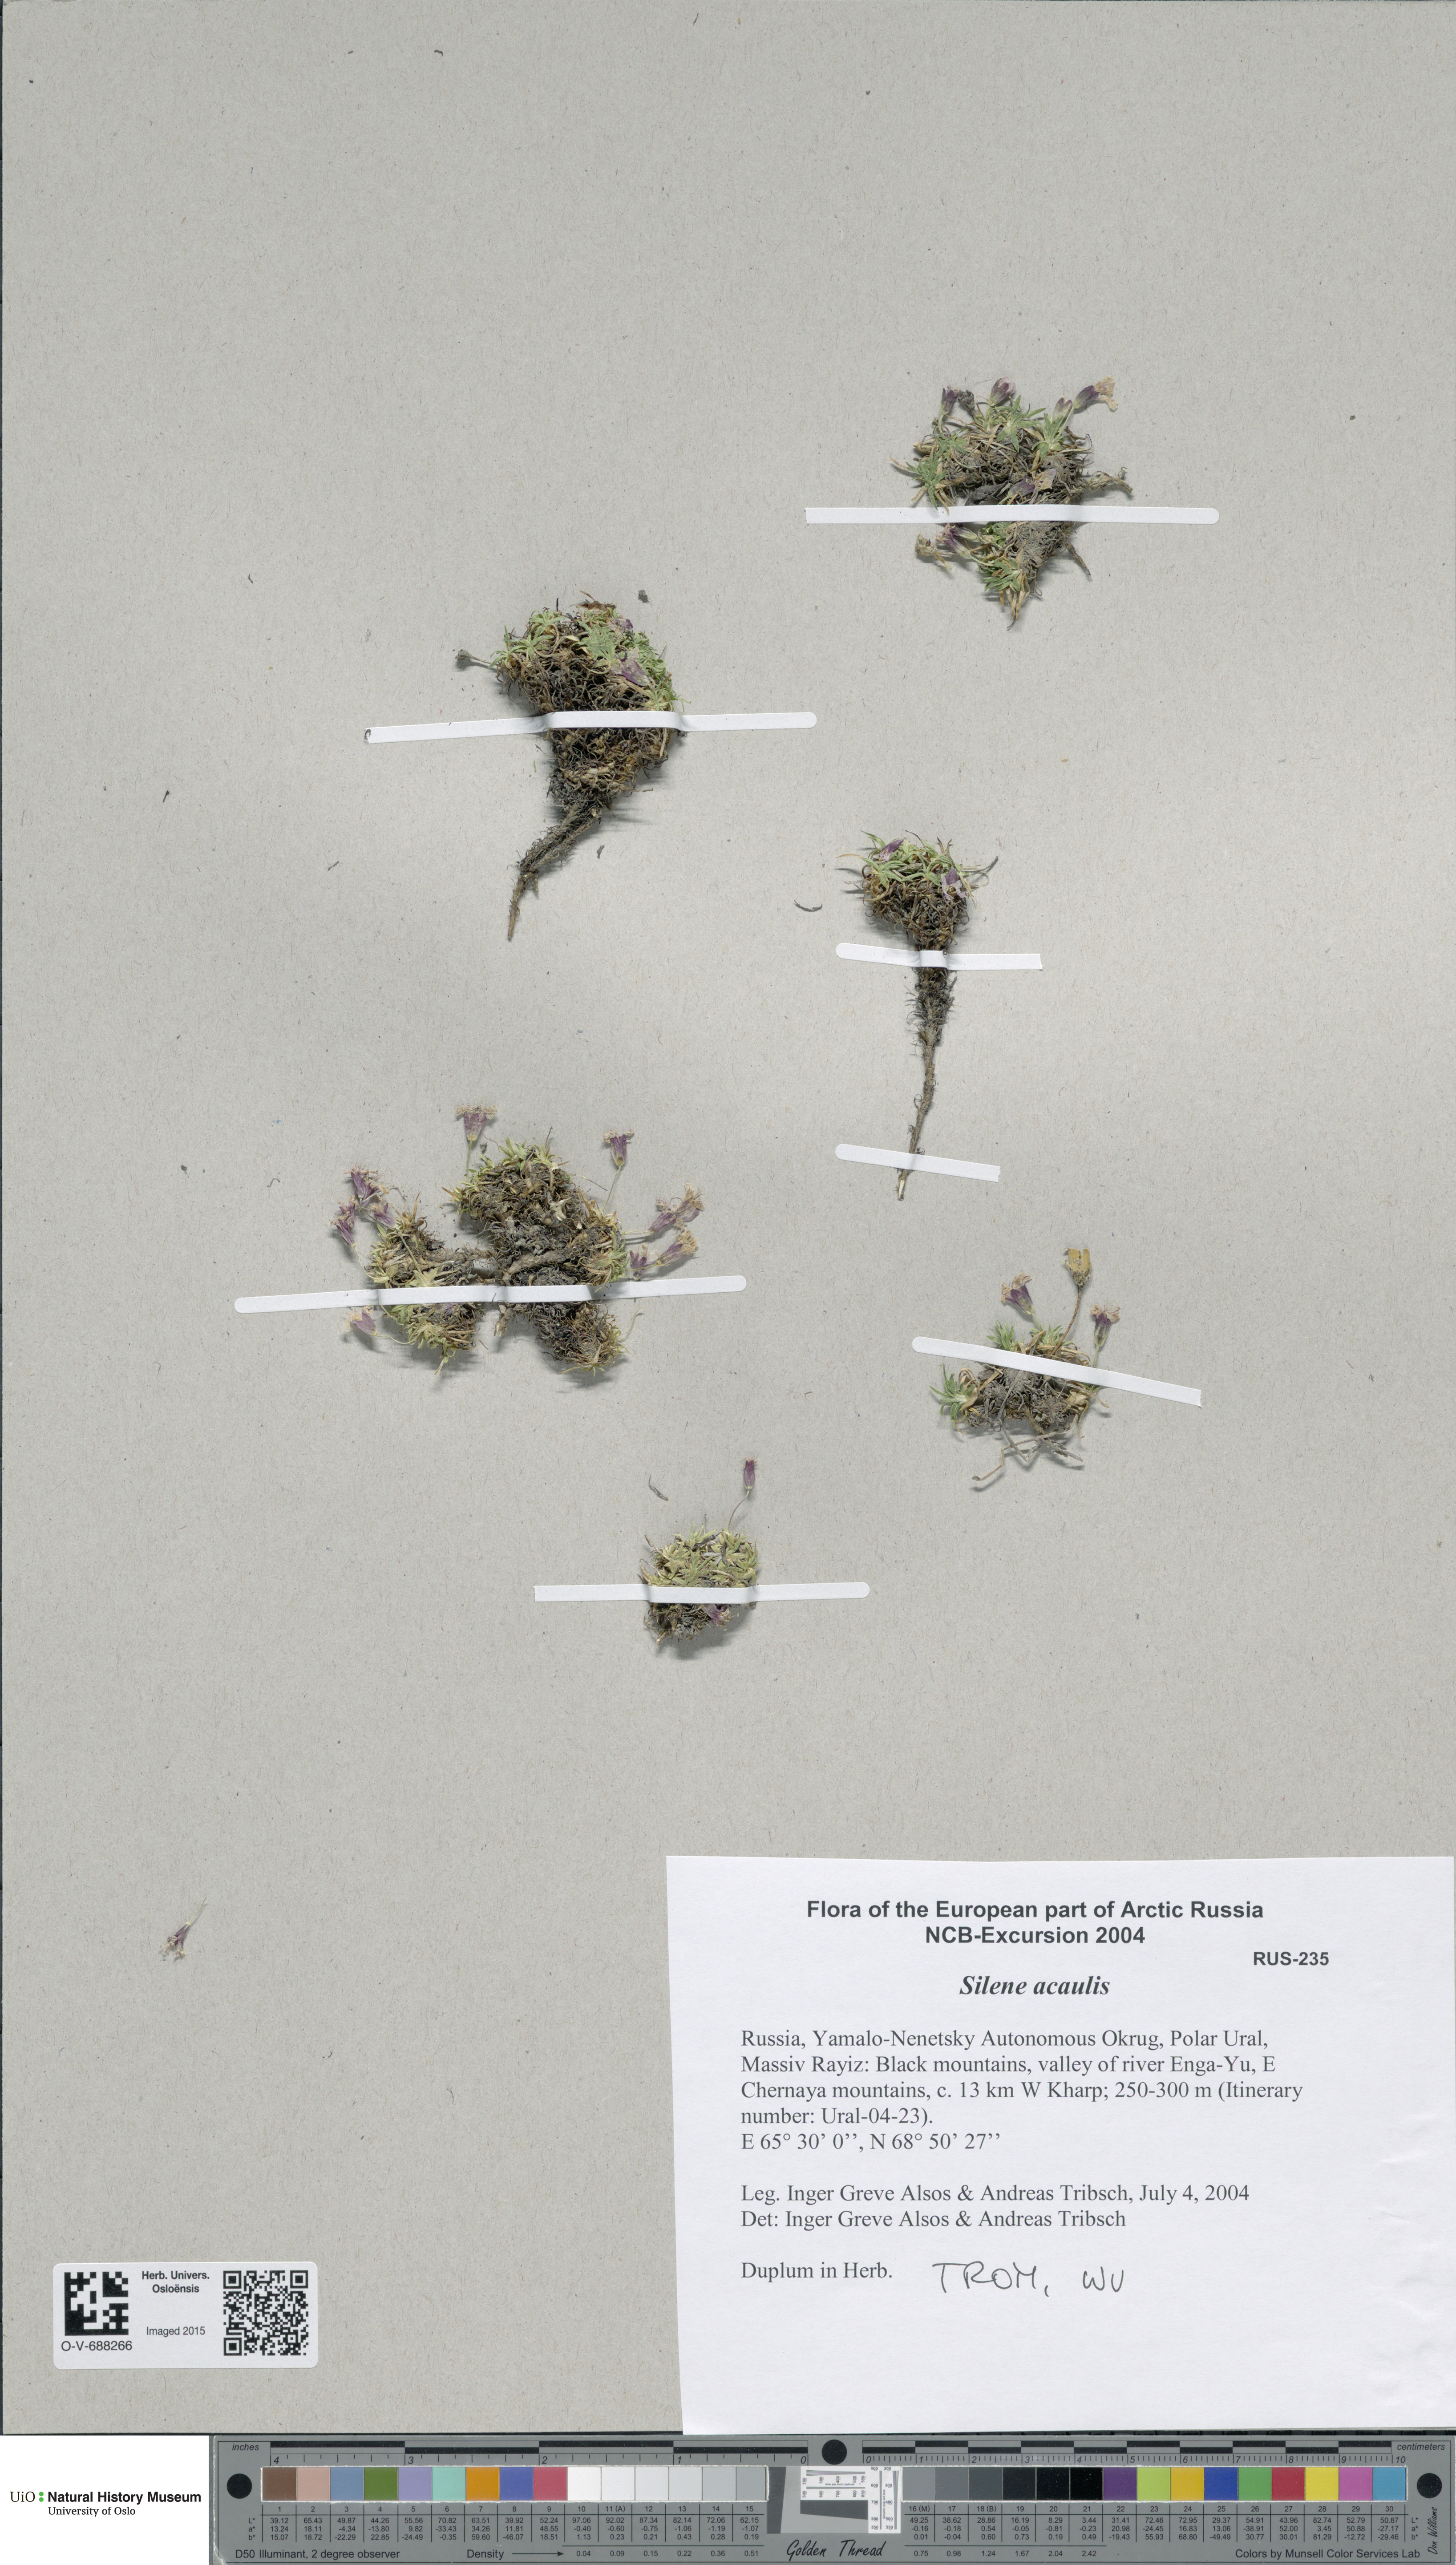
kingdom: Plantae
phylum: Tracheophyta
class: Magnoliopsida
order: Caryophyllales
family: Caryophyllaceae
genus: Silene
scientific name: Silene acaulis
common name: Moss campion
